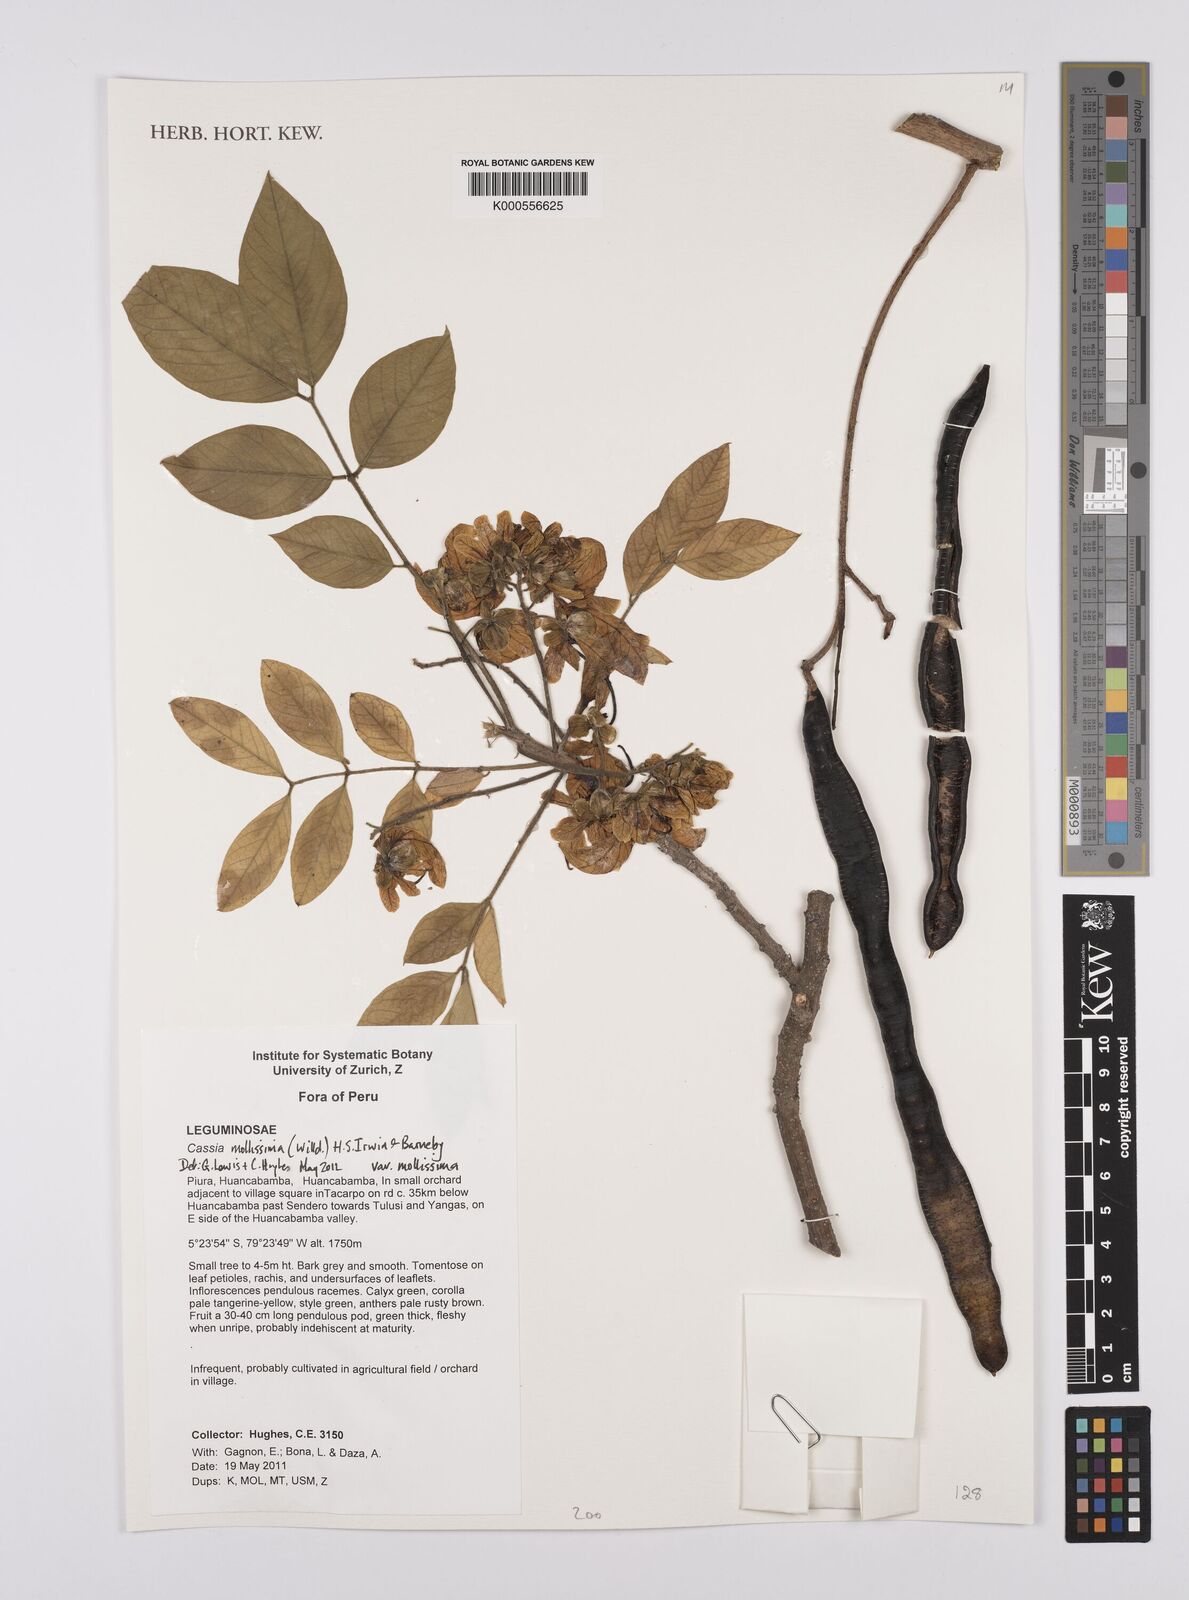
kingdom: Plantae
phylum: Tracheophyta
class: Magnoliopsida
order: Fabales
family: Fabaceae
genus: Senna
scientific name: Senna mollissima
